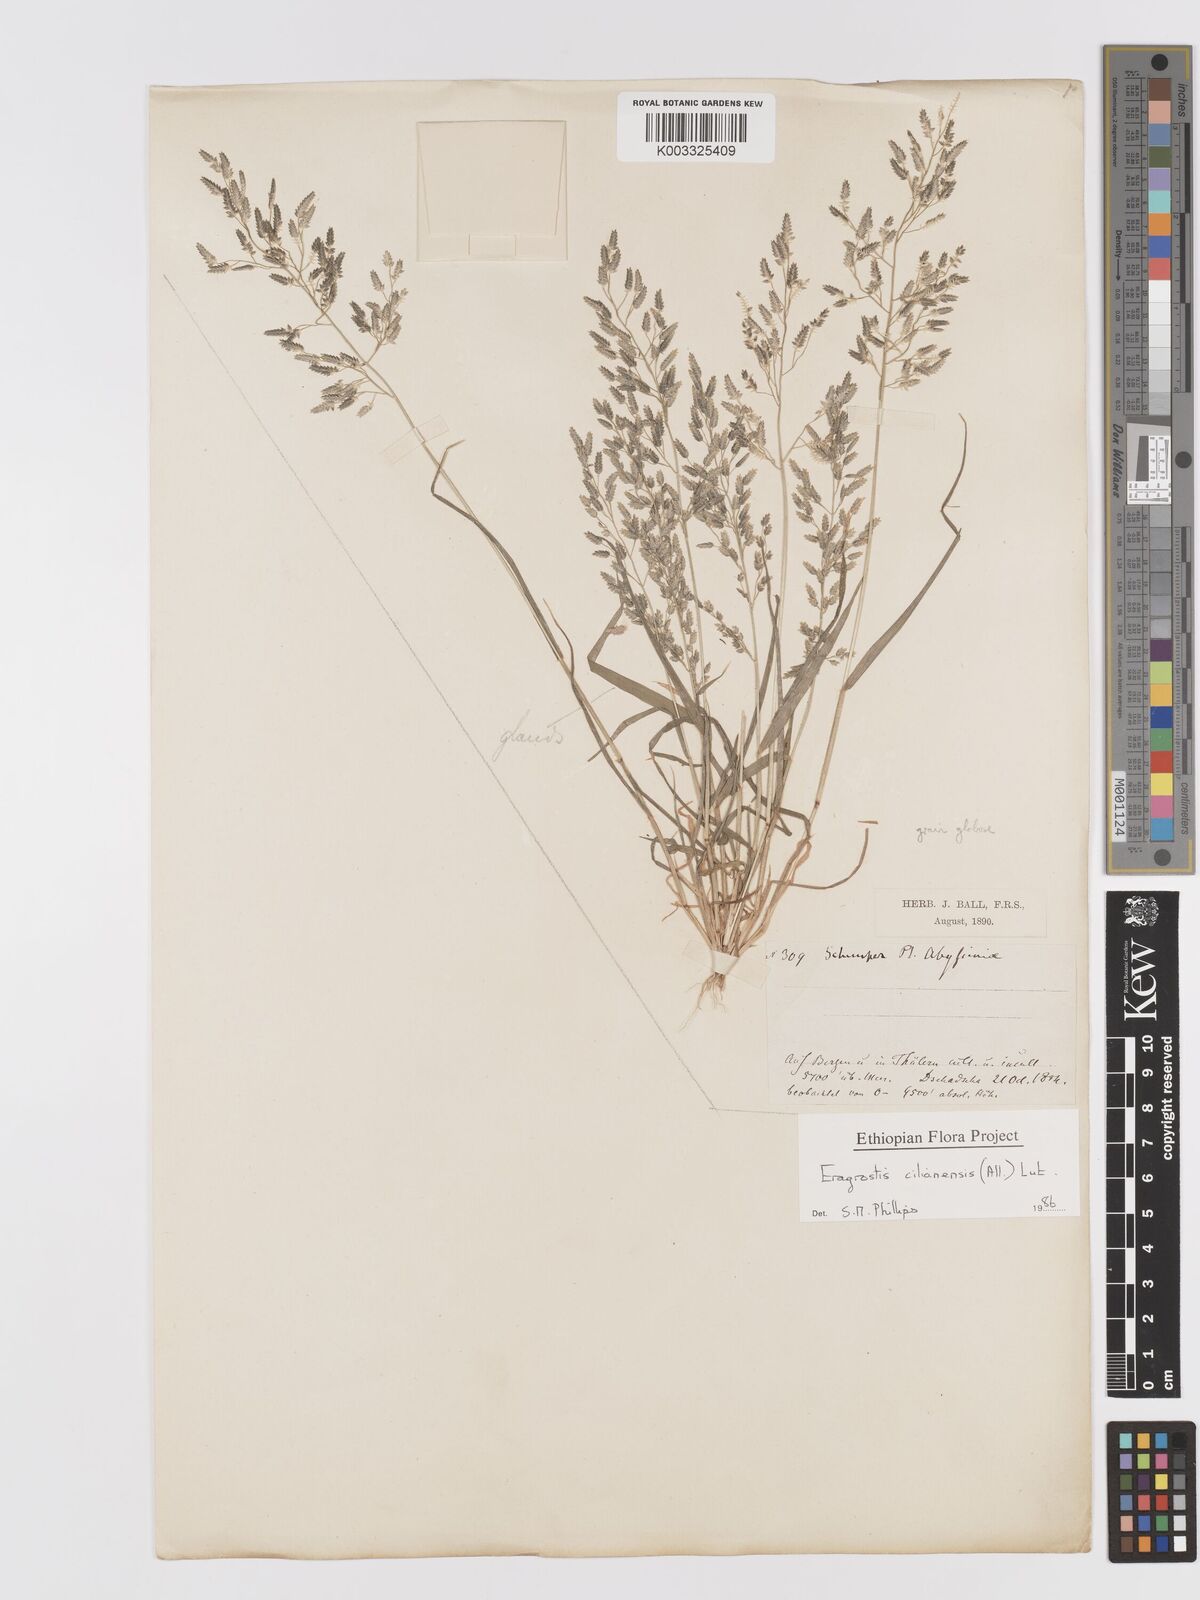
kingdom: Plantae
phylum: Tracheophyta
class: Liliopsida
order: Poales
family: Poaceae
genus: Eragrostis
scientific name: Eragrostis cilianensis
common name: Stinkgrass
